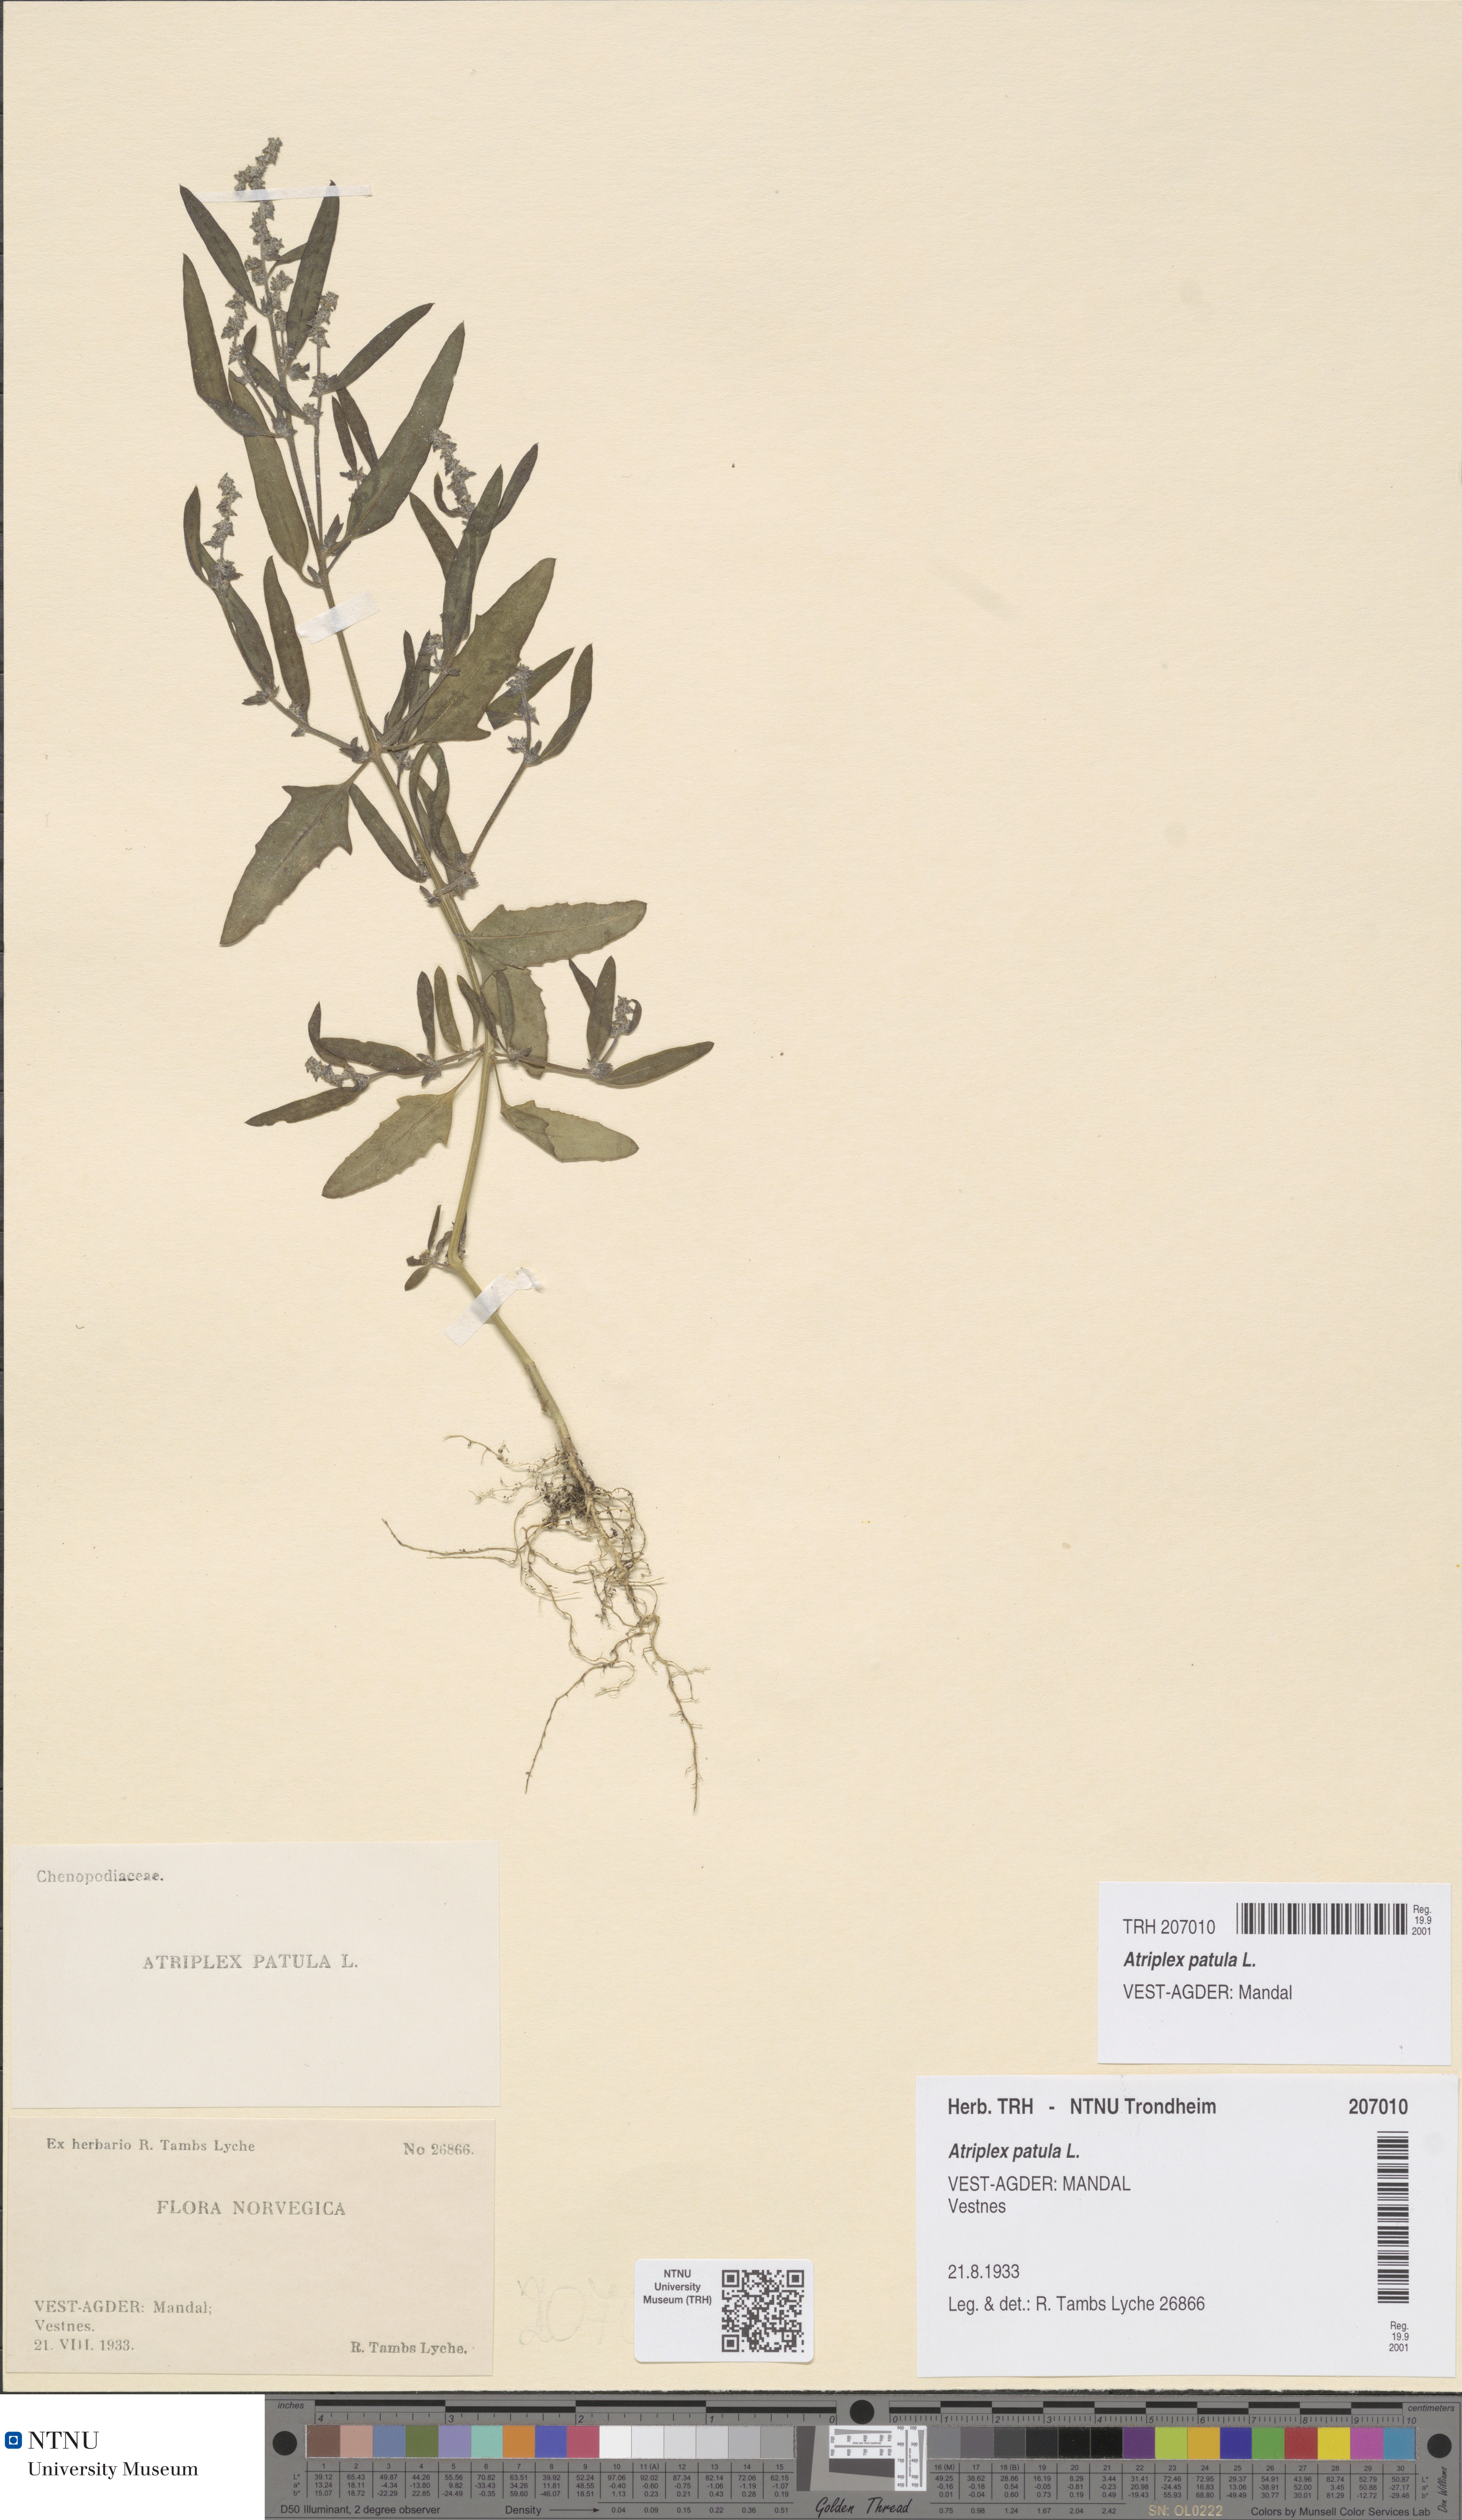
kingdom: Plantae
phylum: Tracheophyta
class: Magnoliopsida
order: Caryophyllales
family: Amaranthaceae
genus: Atriplex
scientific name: Atriplex patula
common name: Common orache
